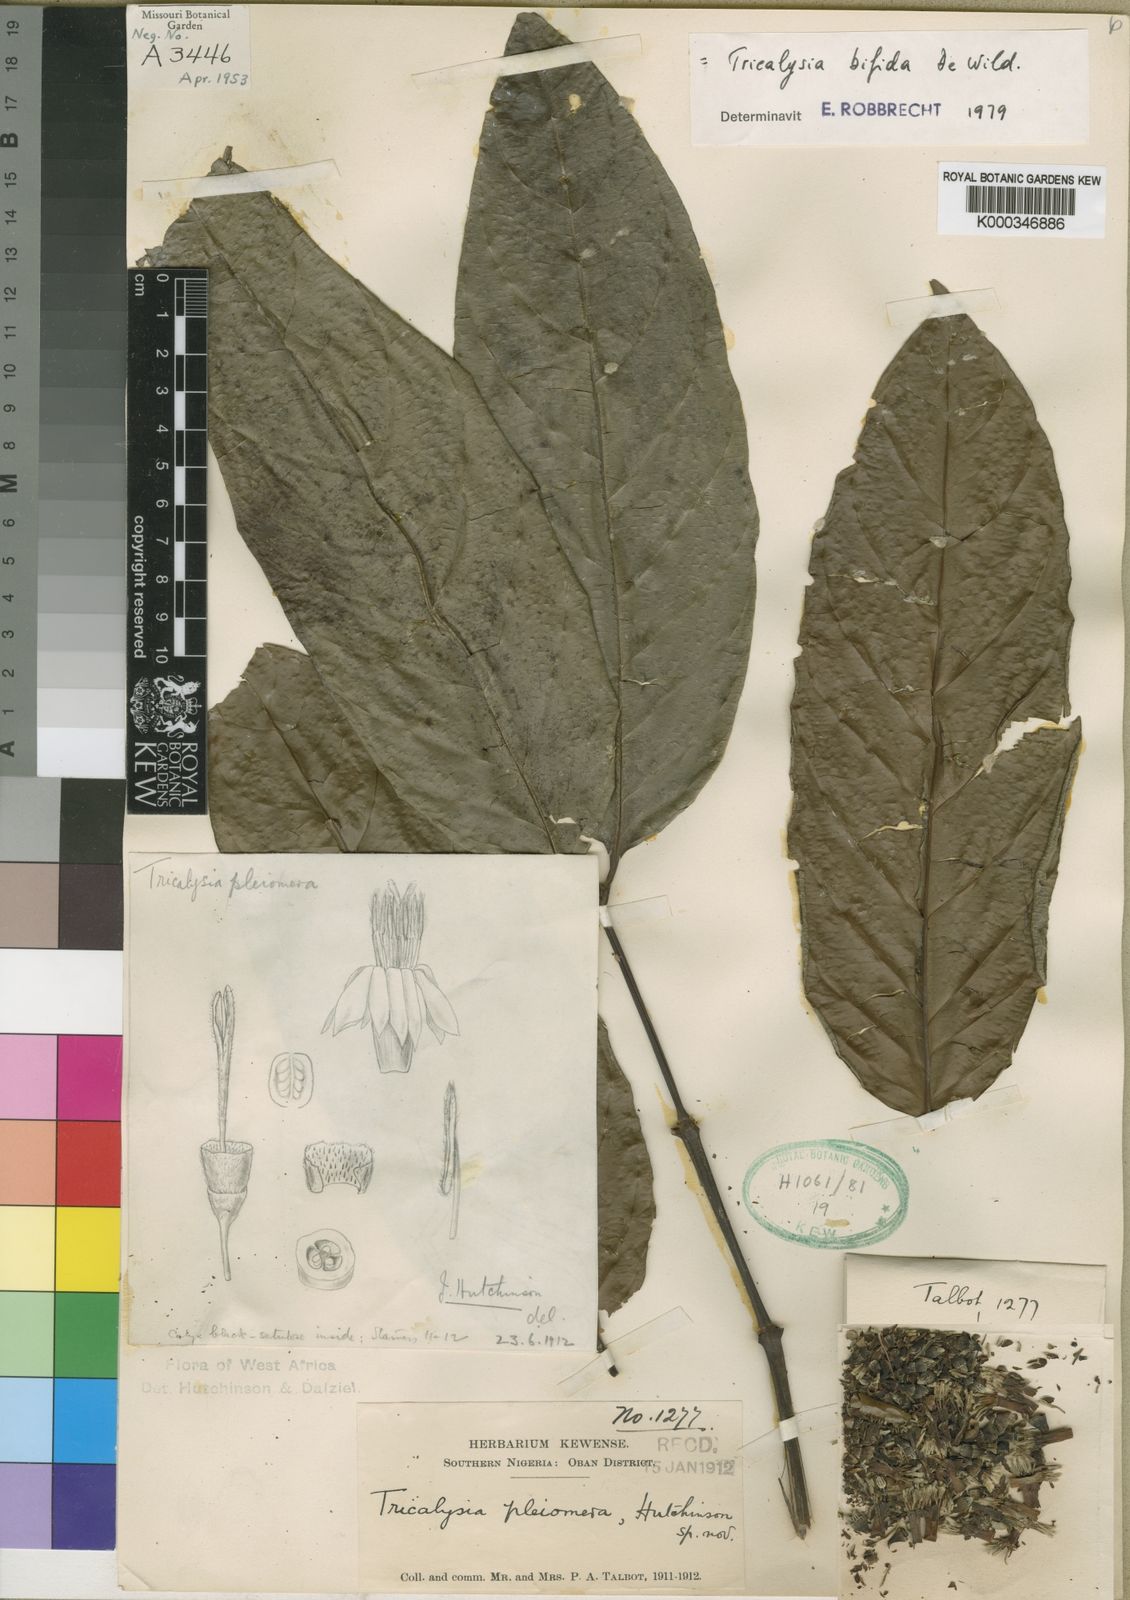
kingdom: Plantae
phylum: Tracheophyta
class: Magnoliopsida
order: Gentianales
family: Rubiaceae
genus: Tricalysia
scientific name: Tricalysia bifida
